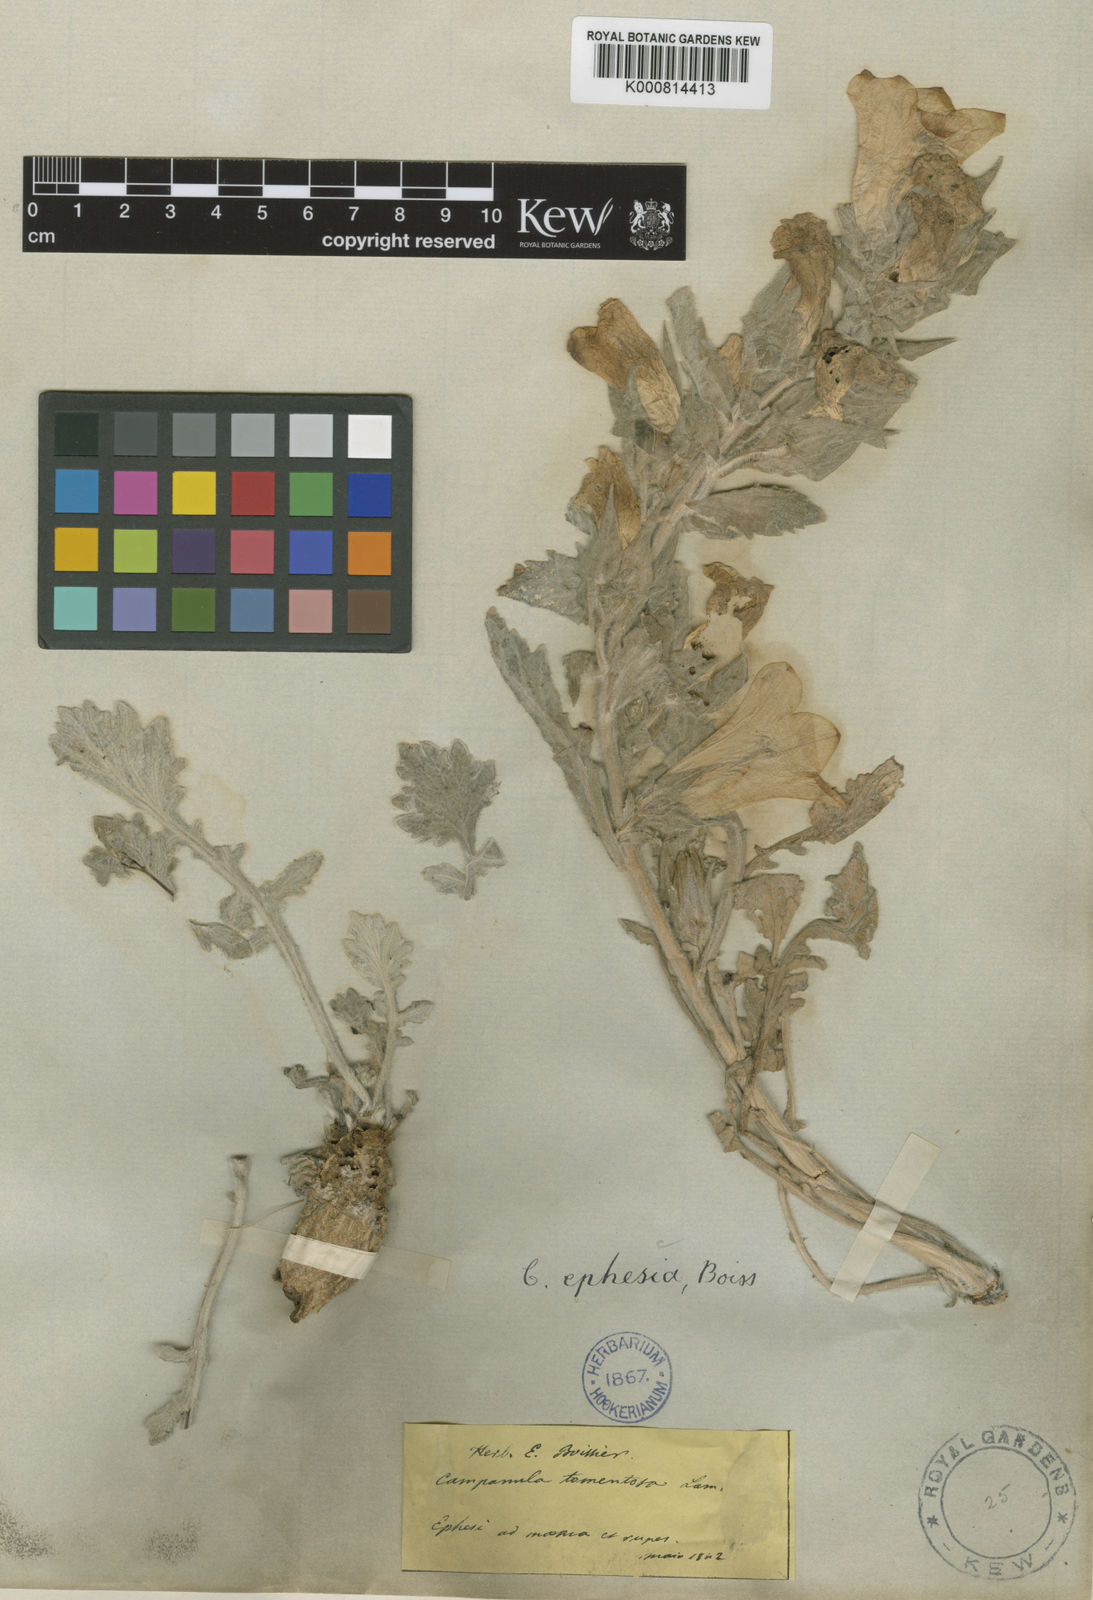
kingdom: Plantae
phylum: Tracheophyta
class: Magnoliopsida
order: Asterales
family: Campanulaceae
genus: Campanula
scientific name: Campanula tomentosa
